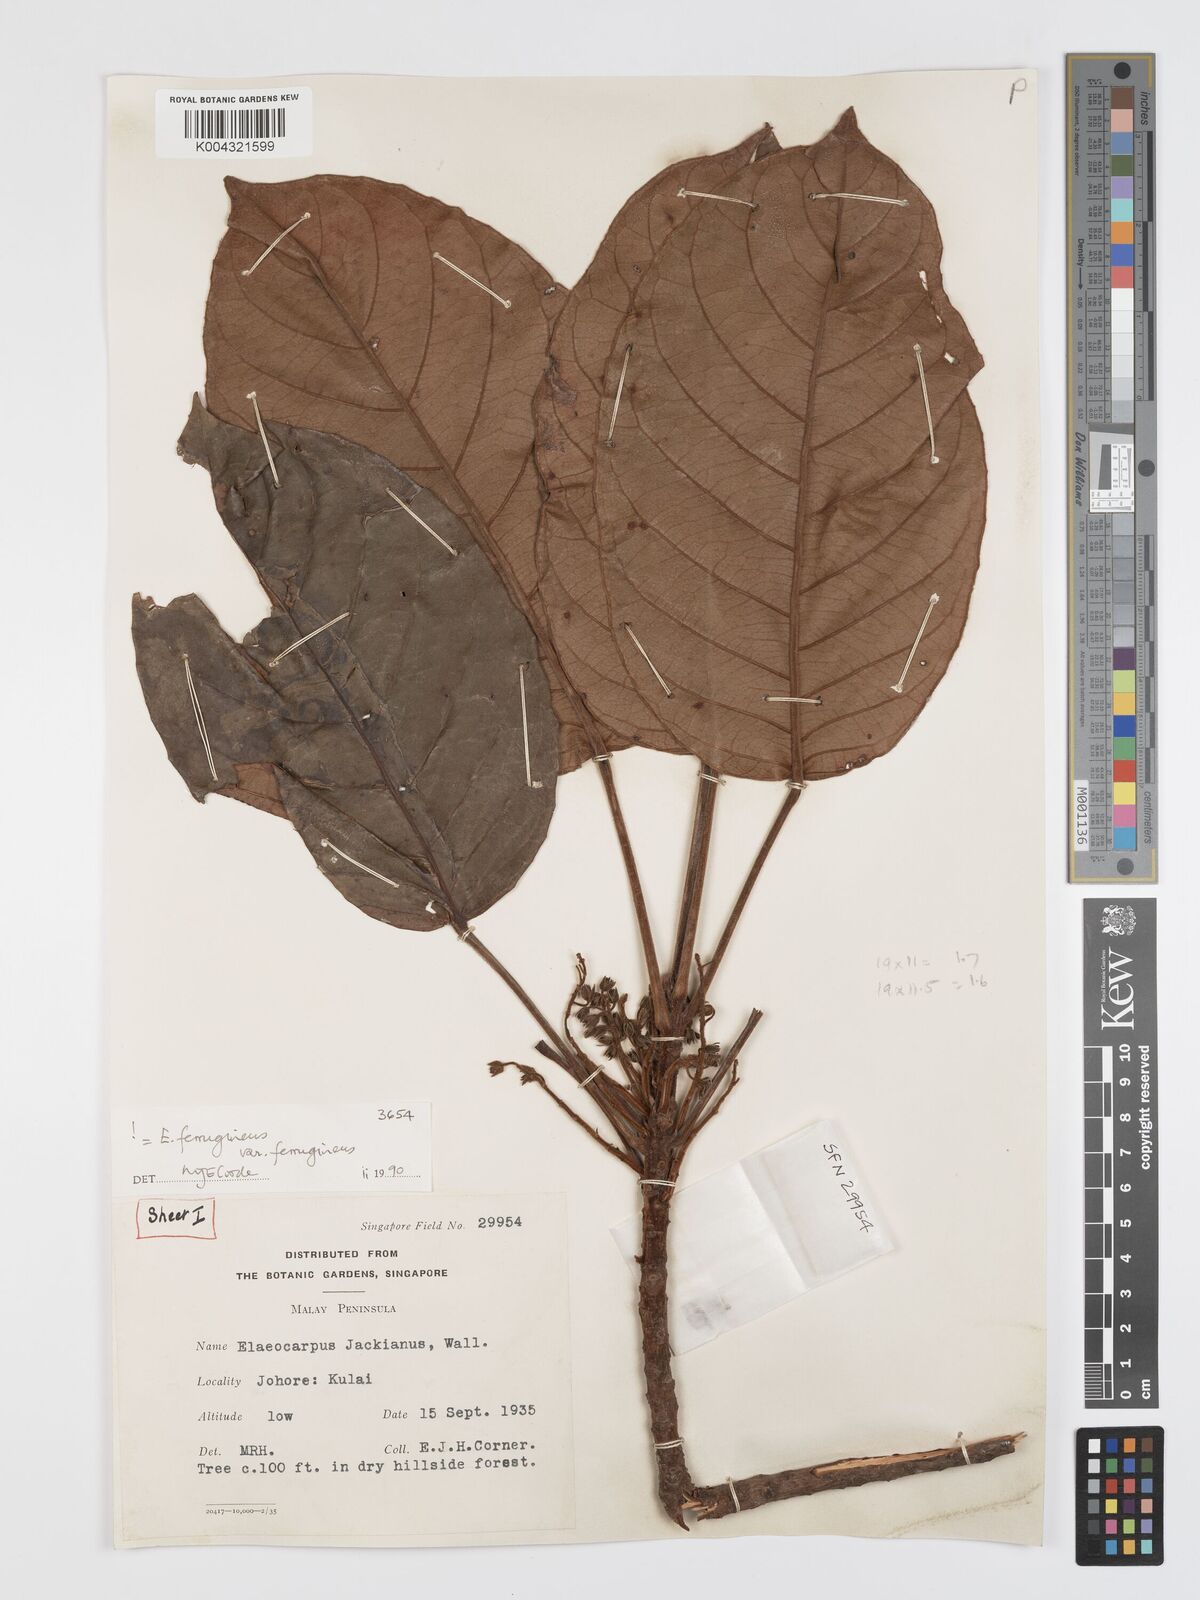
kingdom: Plantae
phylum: Tracheophyta
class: Magnoliopsida
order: Oxalidales
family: Elaeocarpaceae
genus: Elaeocarpus
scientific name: Elaeocarpus ferrugineus
